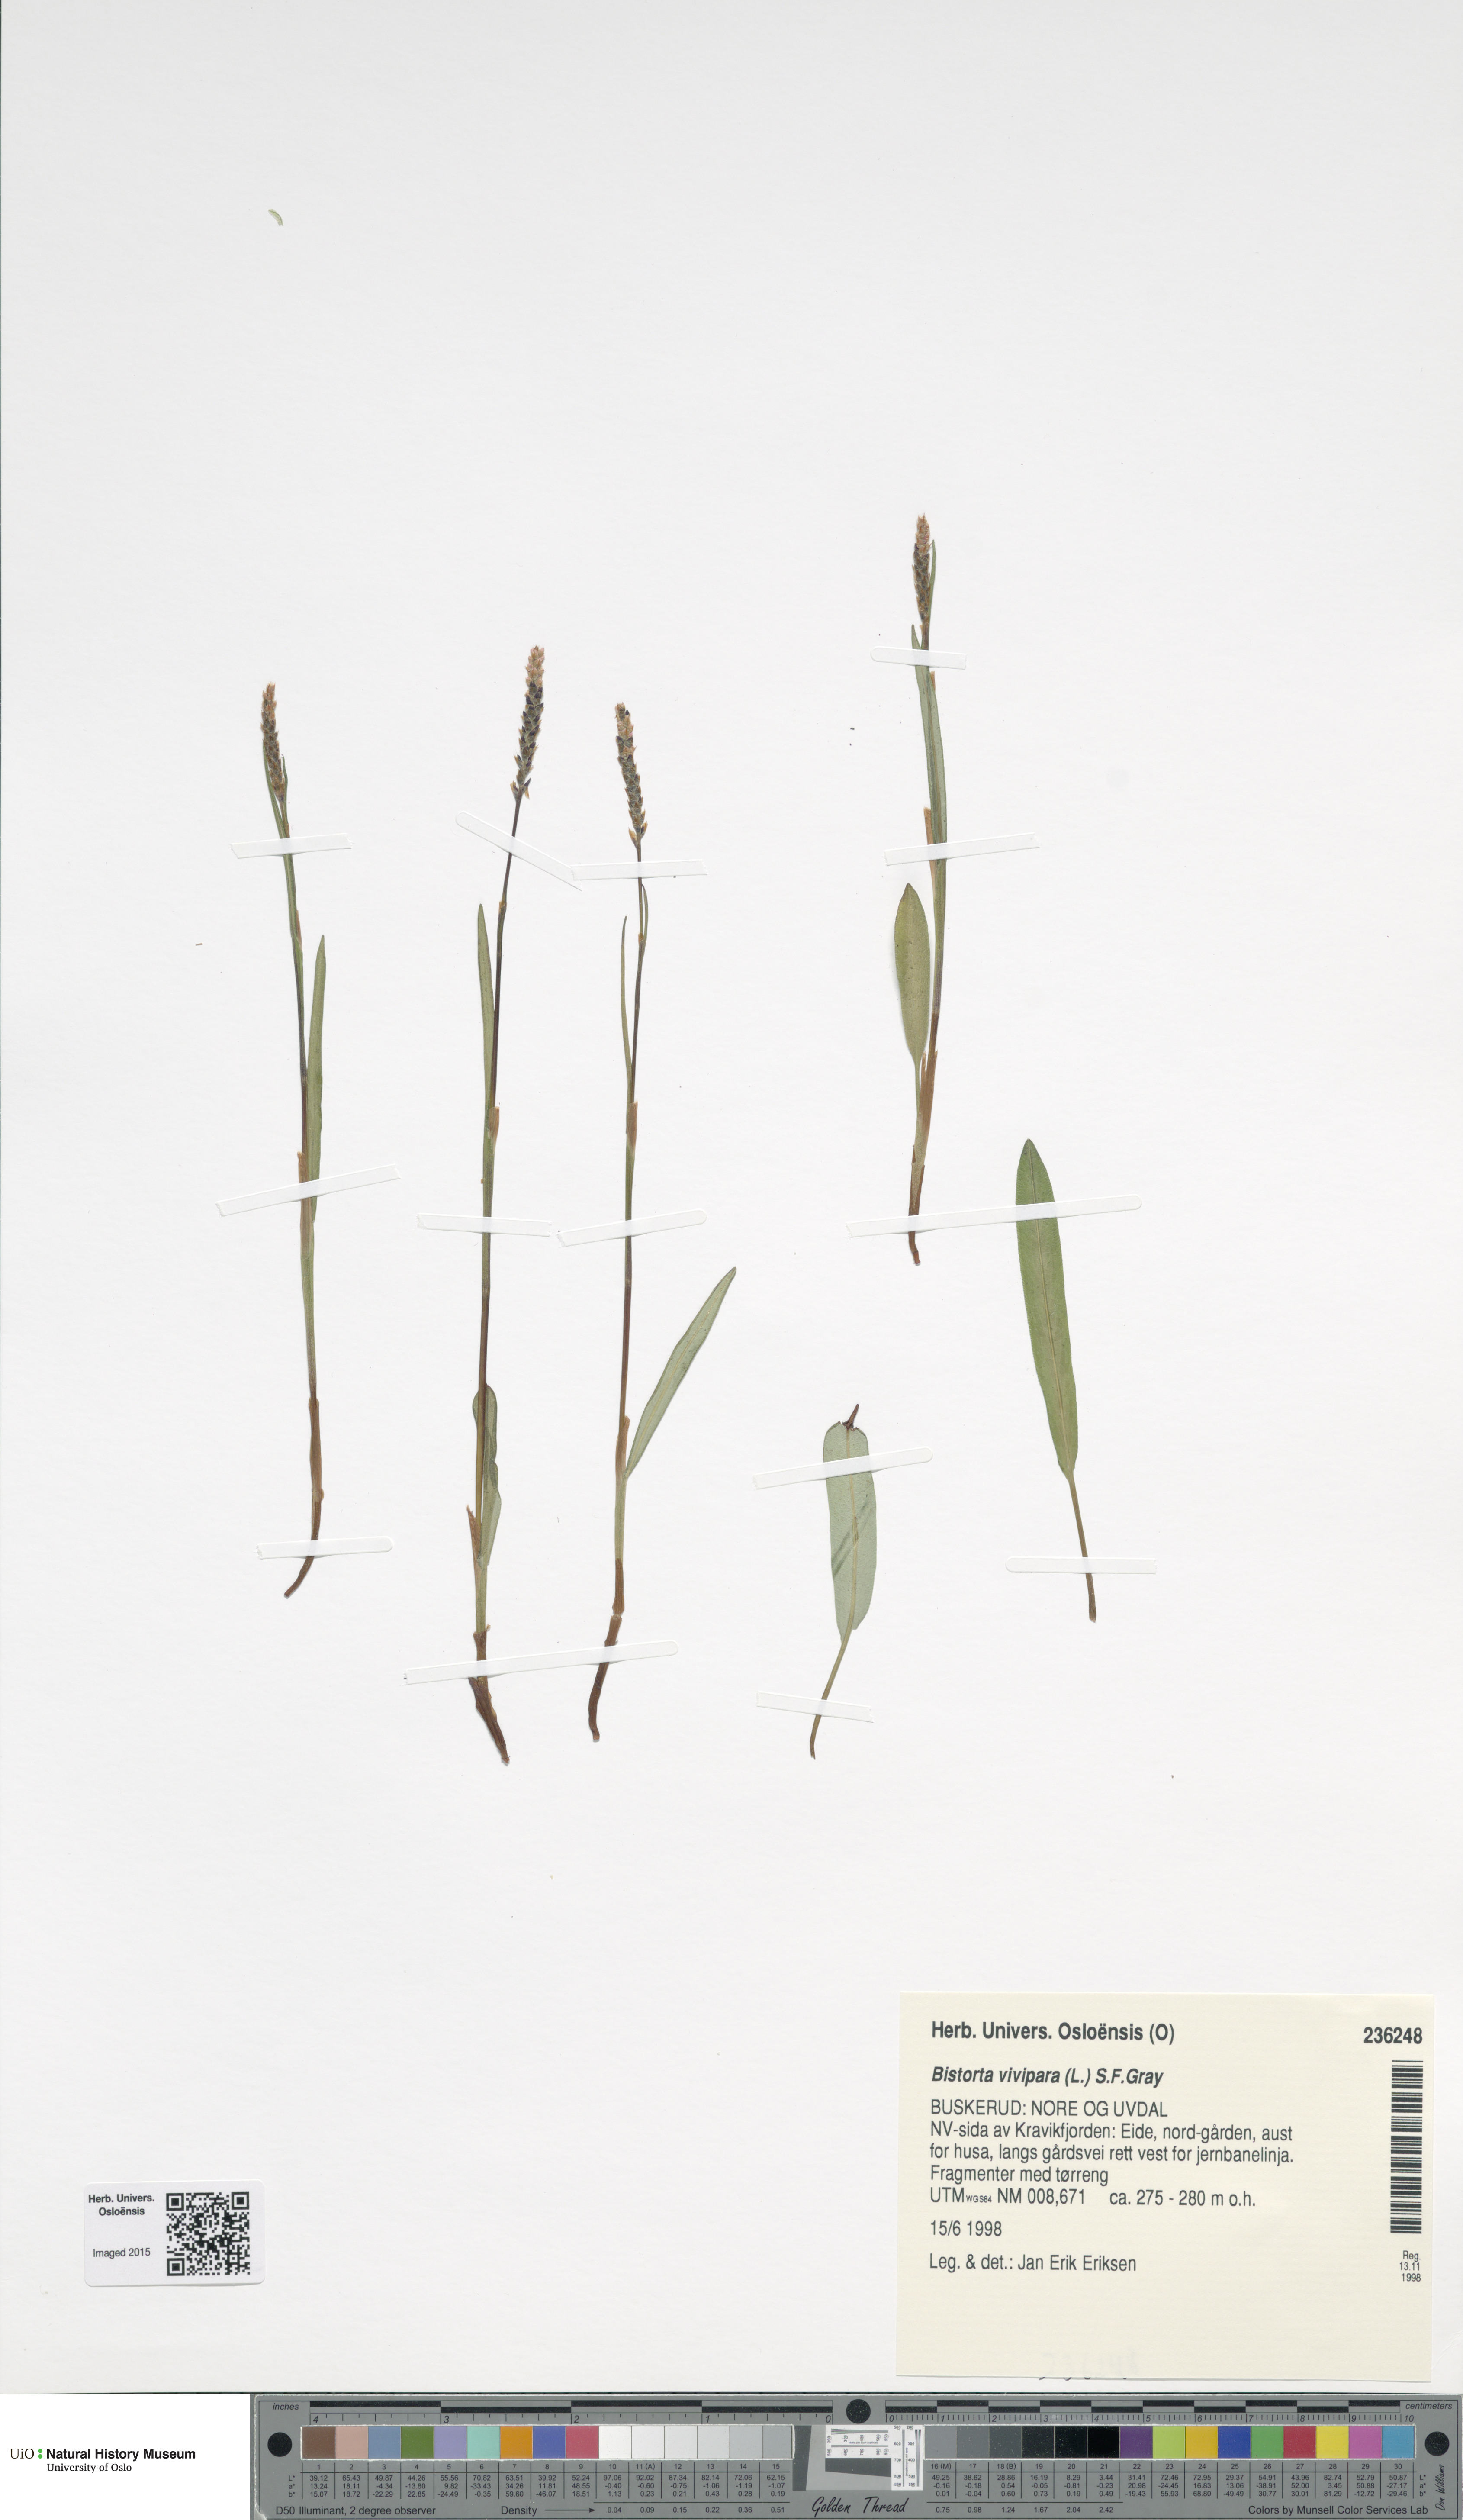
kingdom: Plantae
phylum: Tracheophyta
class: Magnoliopsida
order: Caryophyllales
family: Polygonaceae
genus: Bistorta
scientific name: Bistorta vivipara
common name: Alpine bistort
